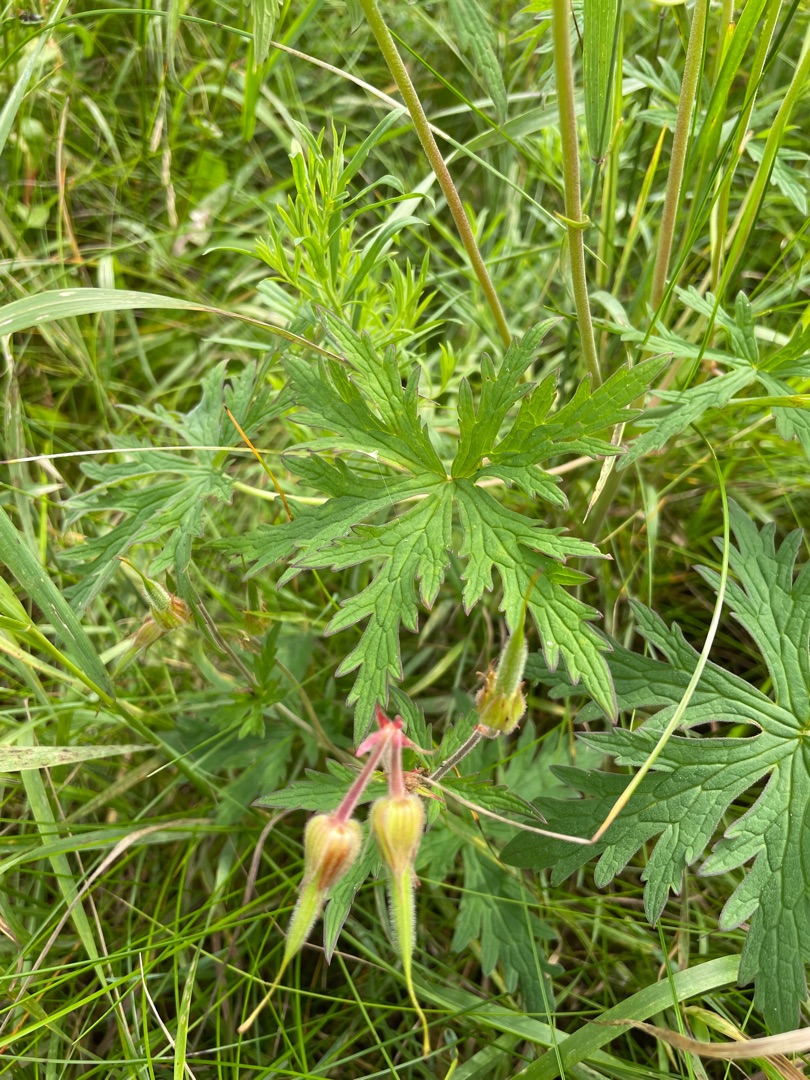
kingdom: Plantae
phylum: Tracheophyta
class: Magnoliopsida
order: Geraniales
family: Geraniaceae
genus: Geranium
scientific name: Geranium pratense
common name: Eng-storkenæb
